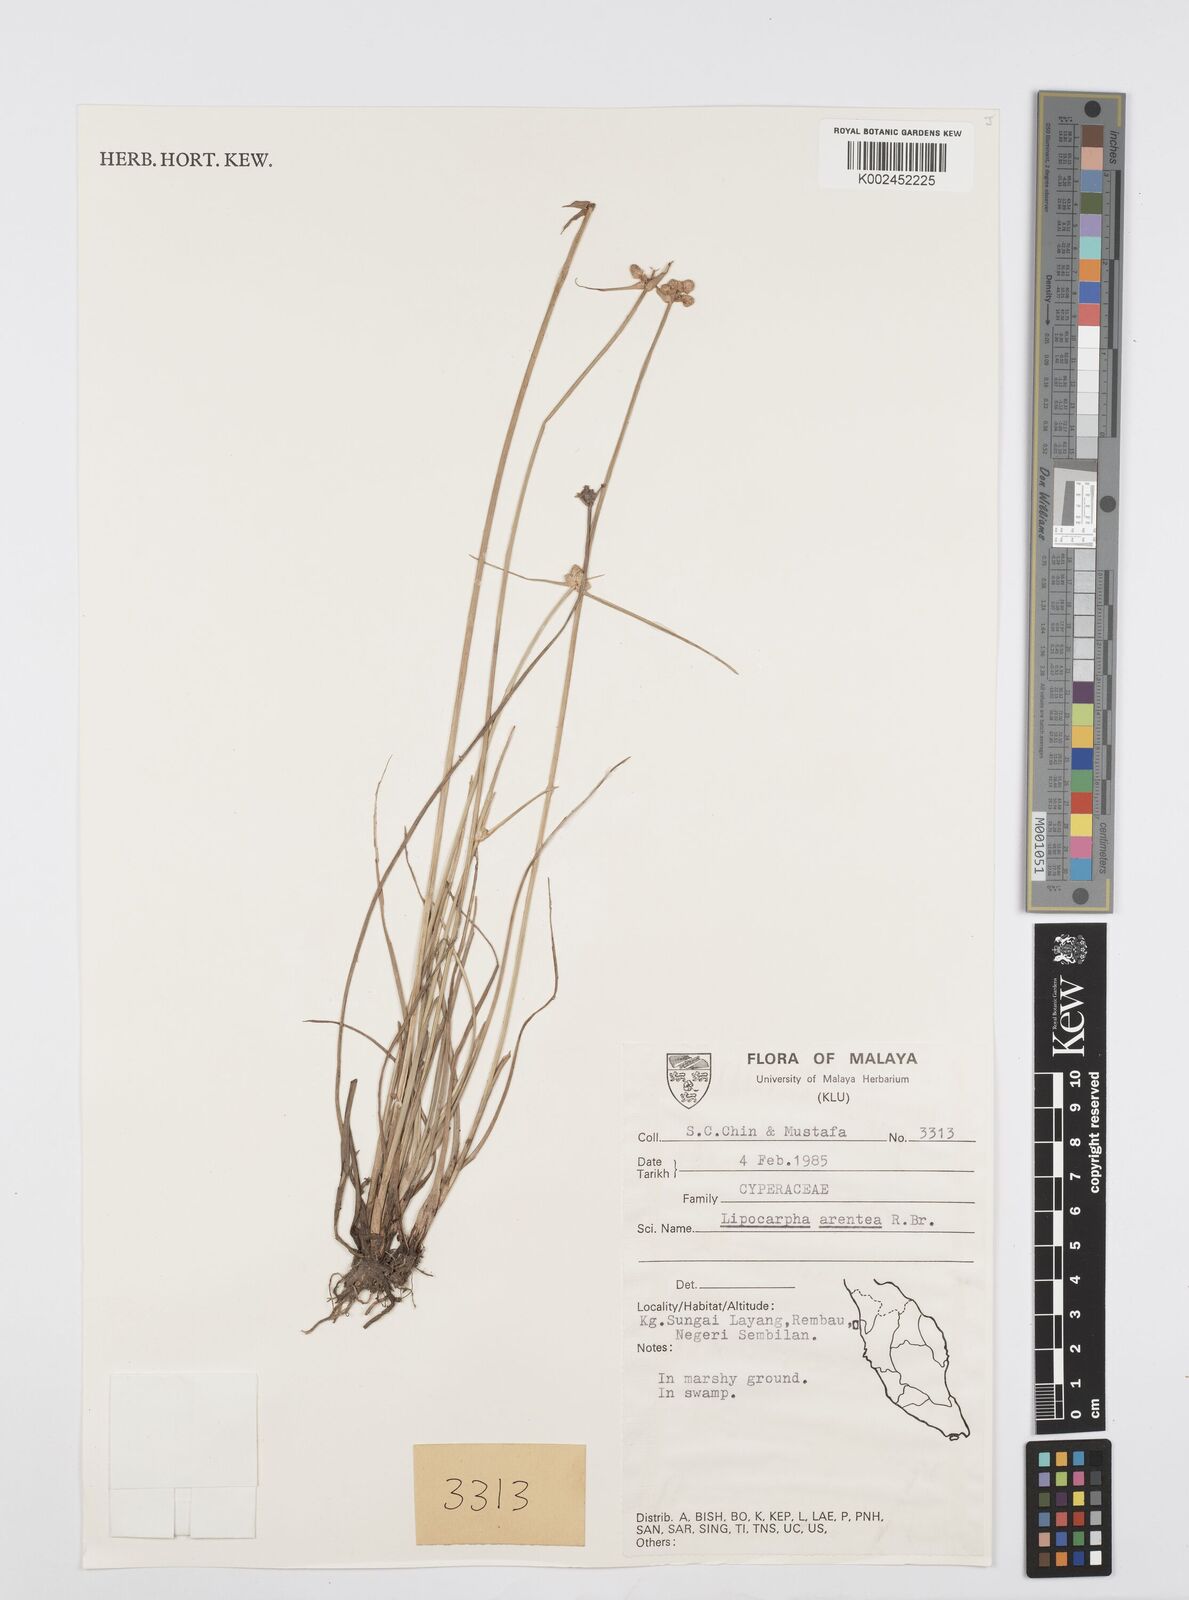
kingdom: Plantae
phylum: Tracheophyta
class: Liliopsida
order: Poales
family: Cyperaceae
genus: Cyperus
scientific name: Cyperus
